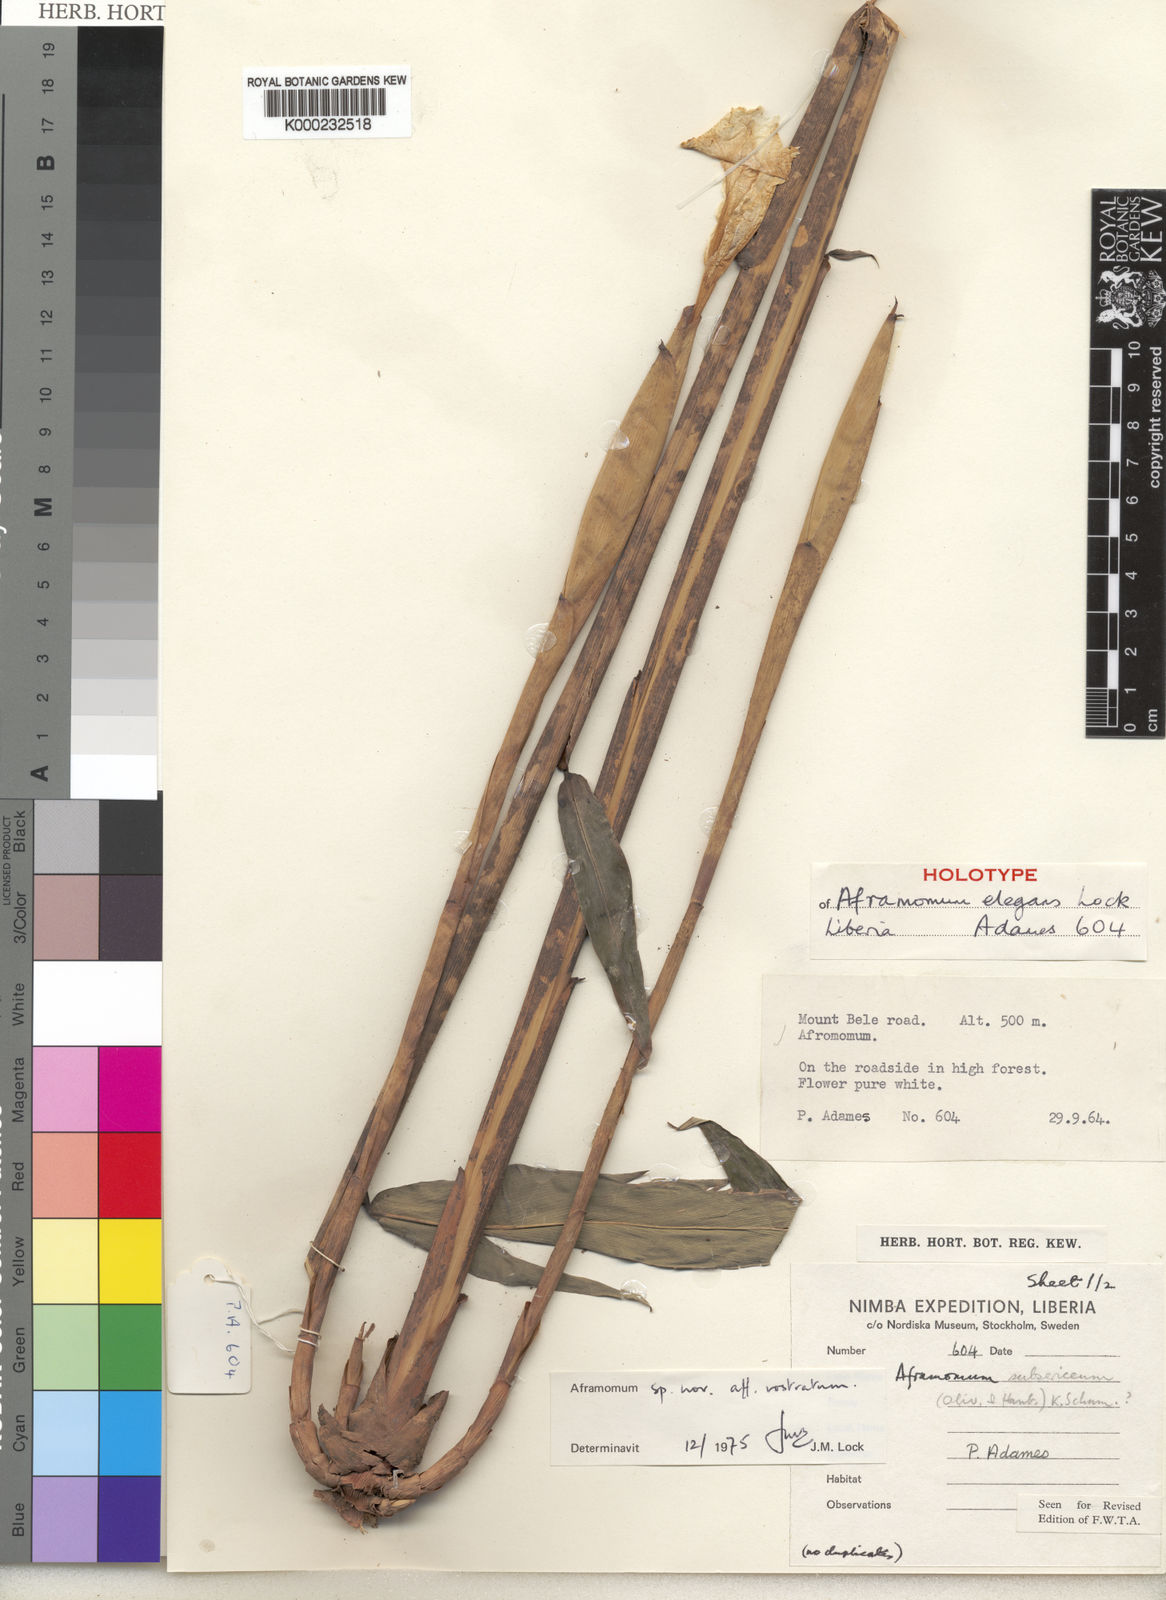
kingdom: Plantae
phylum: Tracheophyta
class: Liliopsida
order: Zingiberales
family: Zingiberaceae
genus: Aframomum
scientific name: Aframomum elegans
